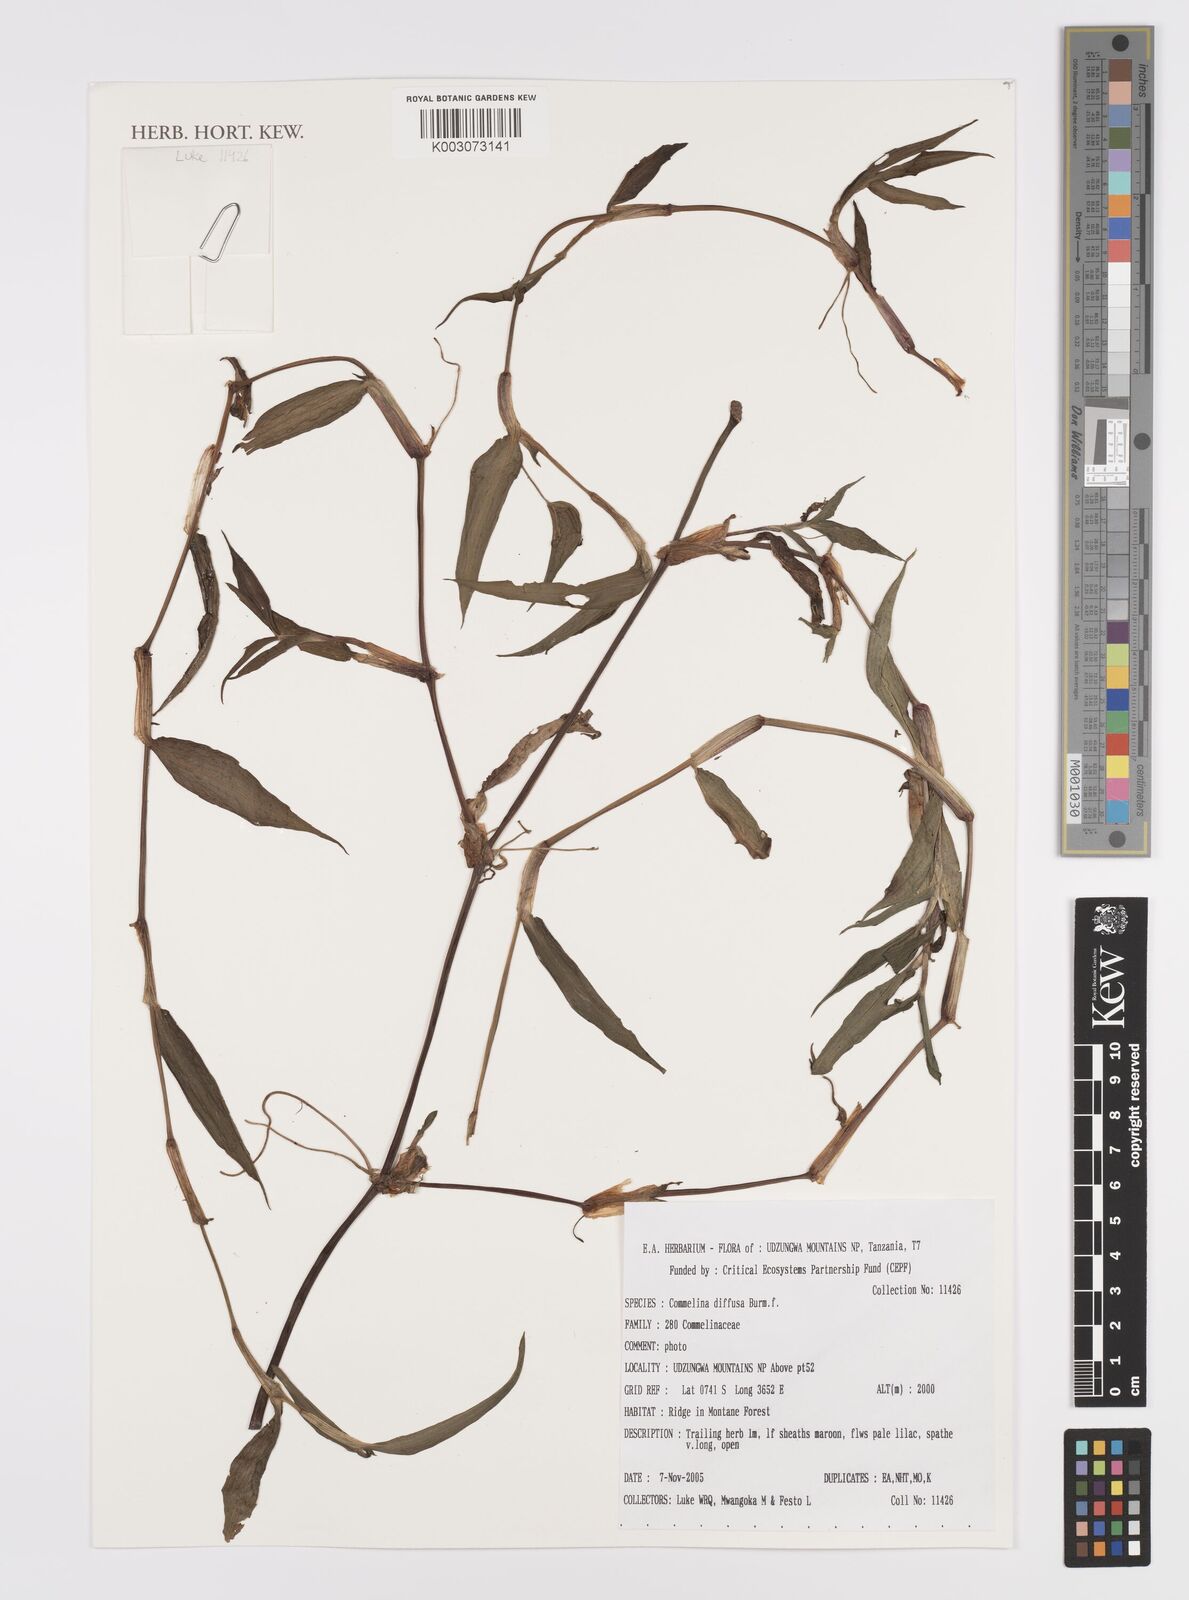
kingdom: Plantae
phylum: Tracheophyta
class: Liliopsida
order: Commelinales
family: Commelinaceae
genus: Commelina
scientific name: Commelina diffusa
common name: Climbing dayflower
